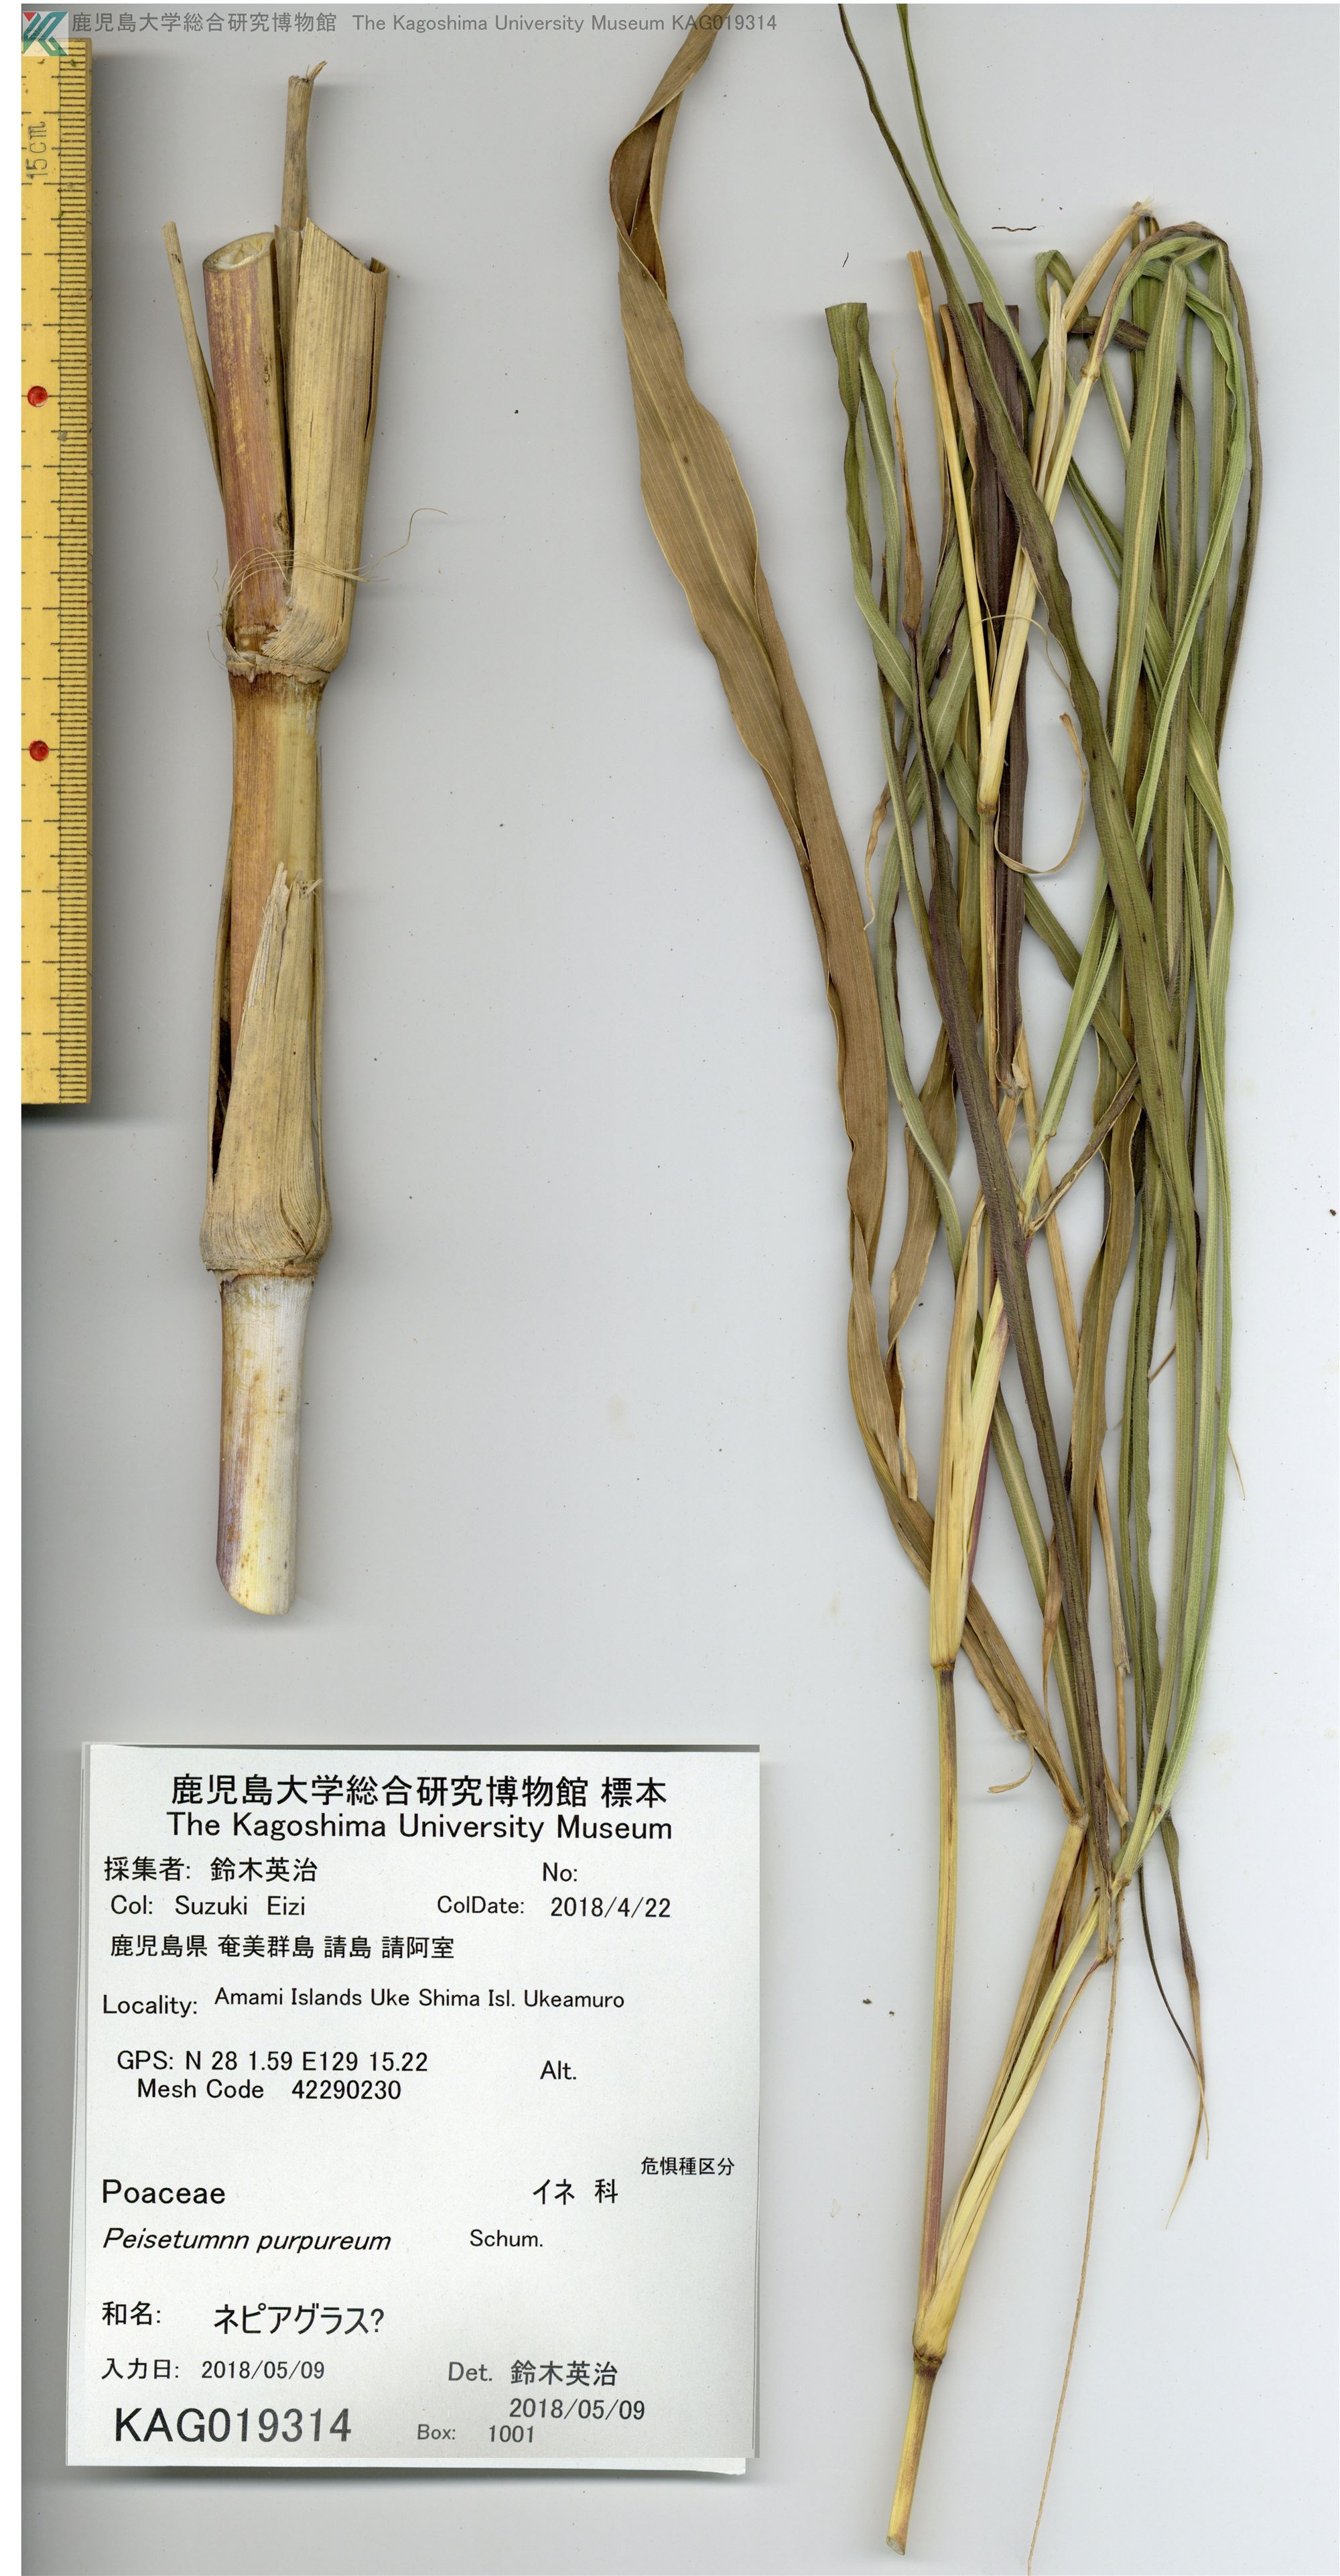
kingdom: Plantae
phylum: Tracheophyta
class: Liliopsida
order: Poales
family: Poaceae
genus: Cenchrus
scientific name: Cenchrus purpureus
